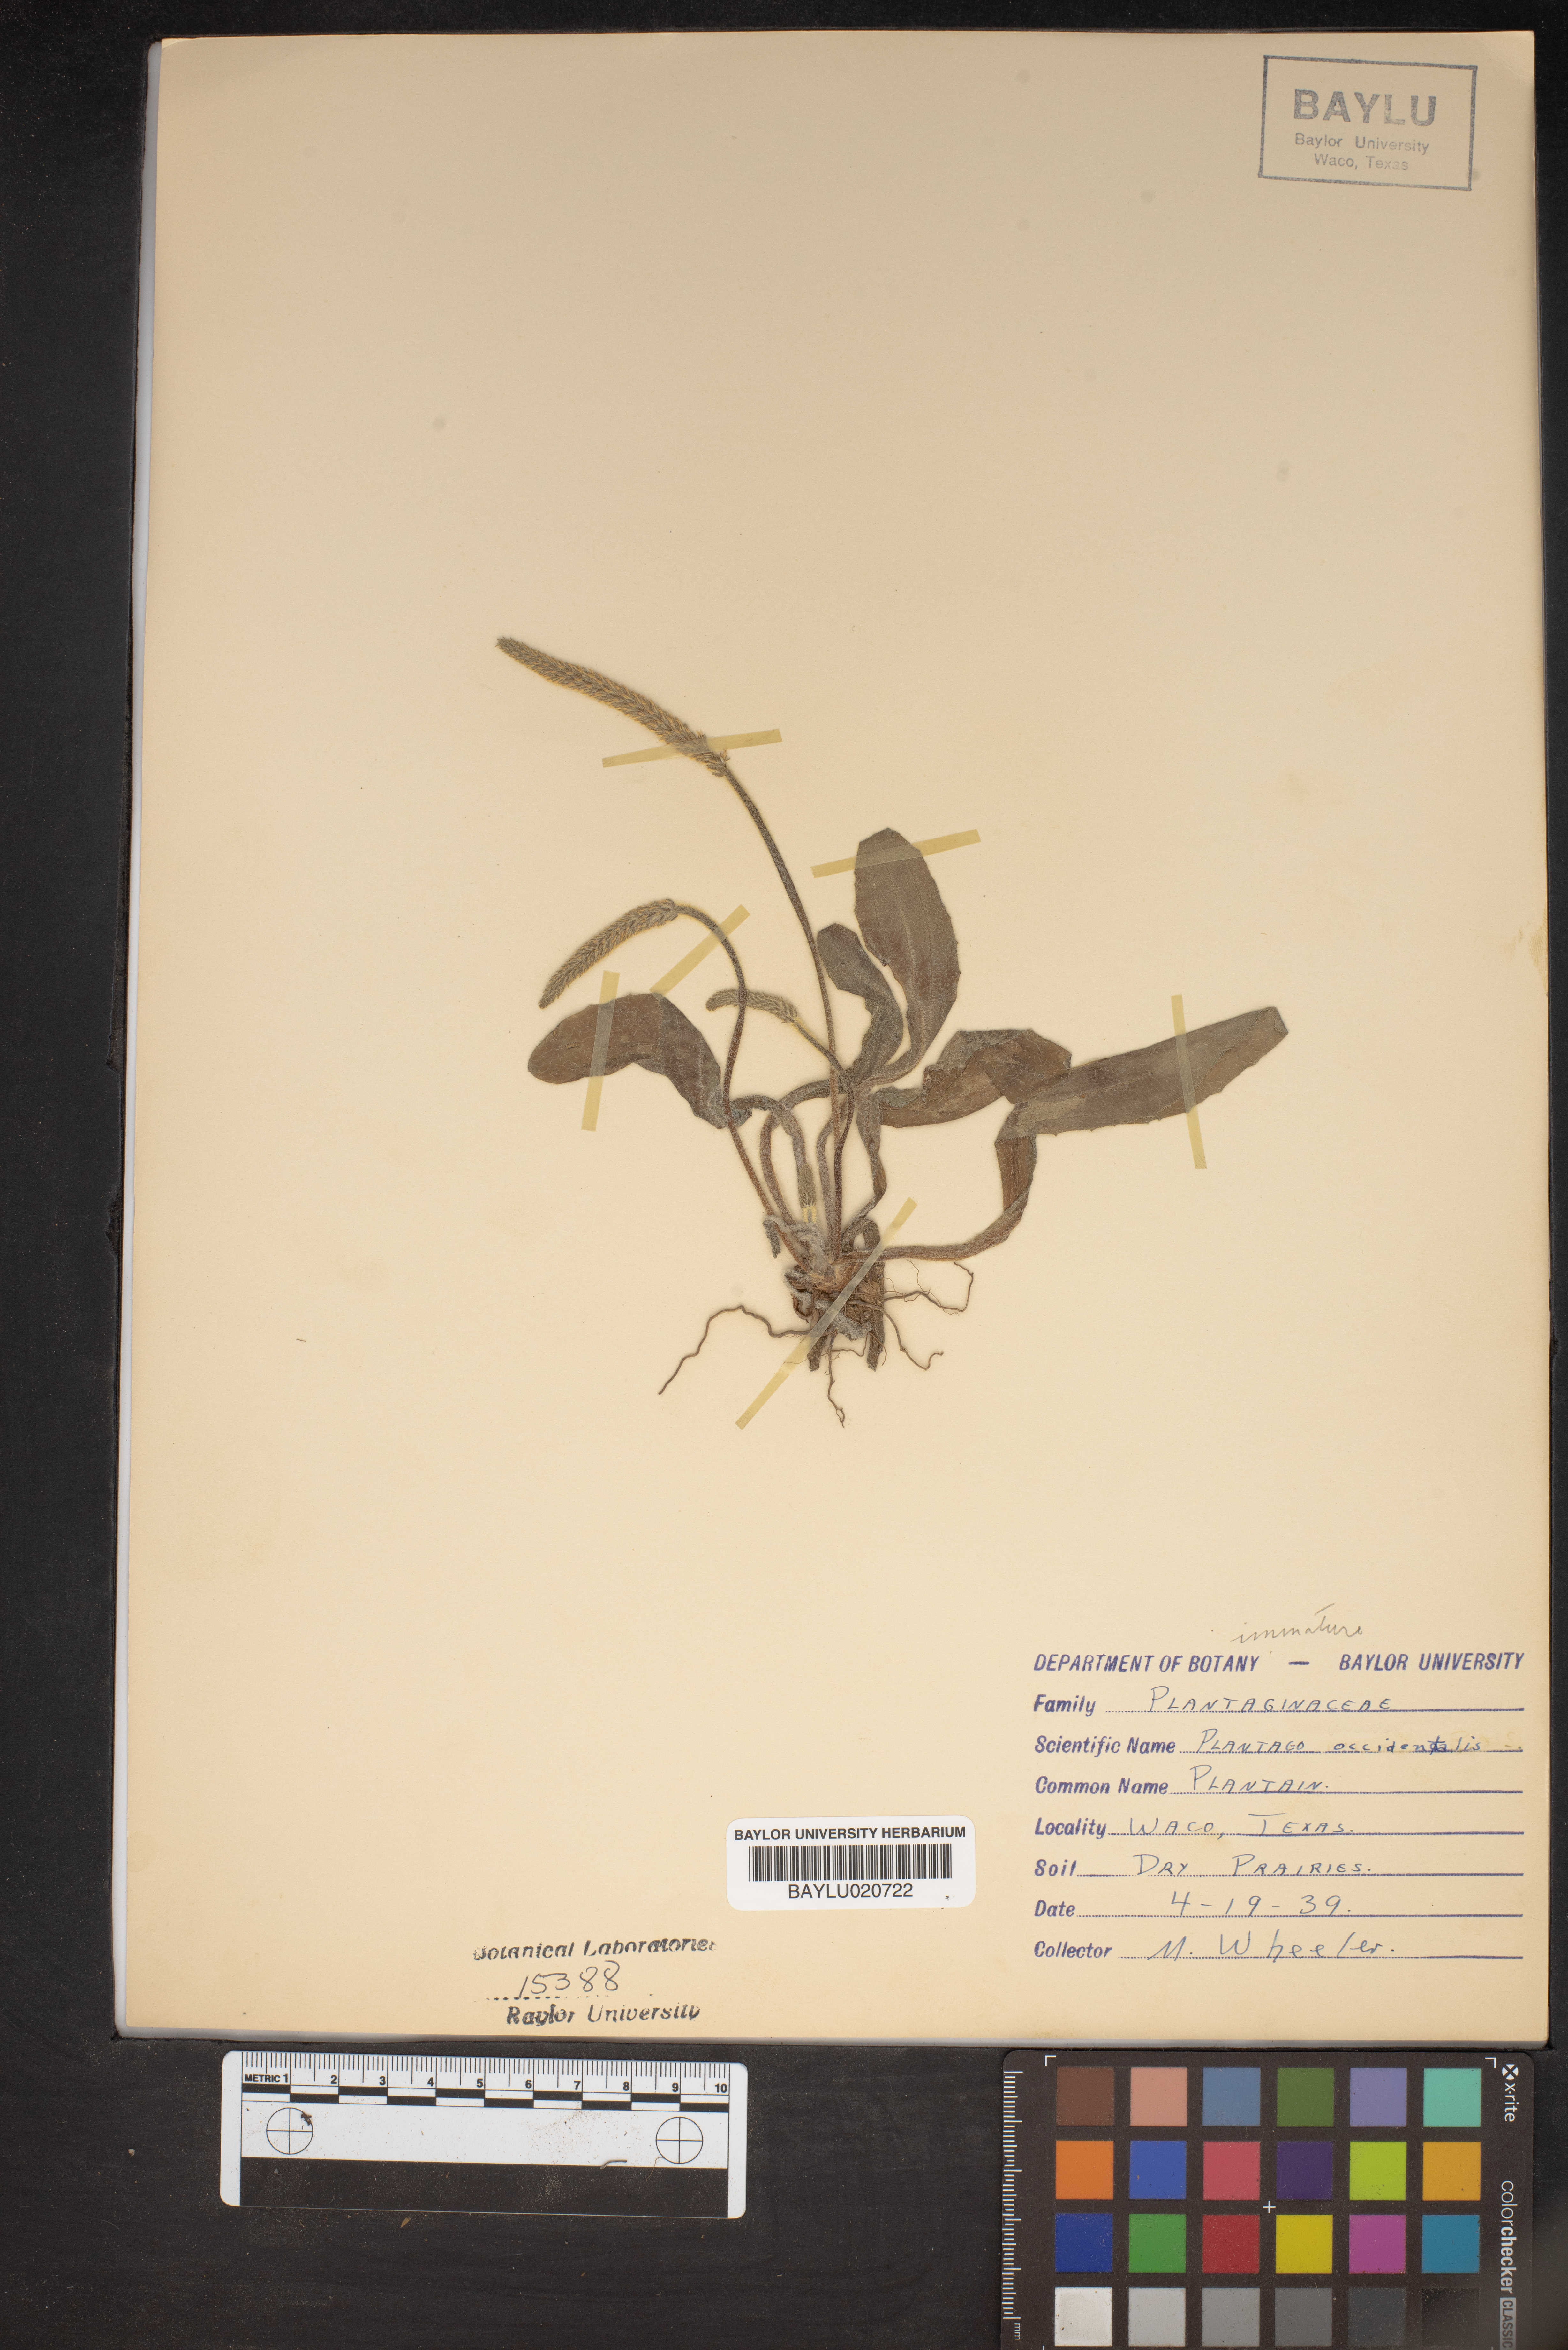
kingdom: Plantae
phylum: Tracheophyta
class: Magnoliopsida
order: Lamiales
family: Plantaginaceae
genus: Plantago
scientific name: Plantago myosuros
